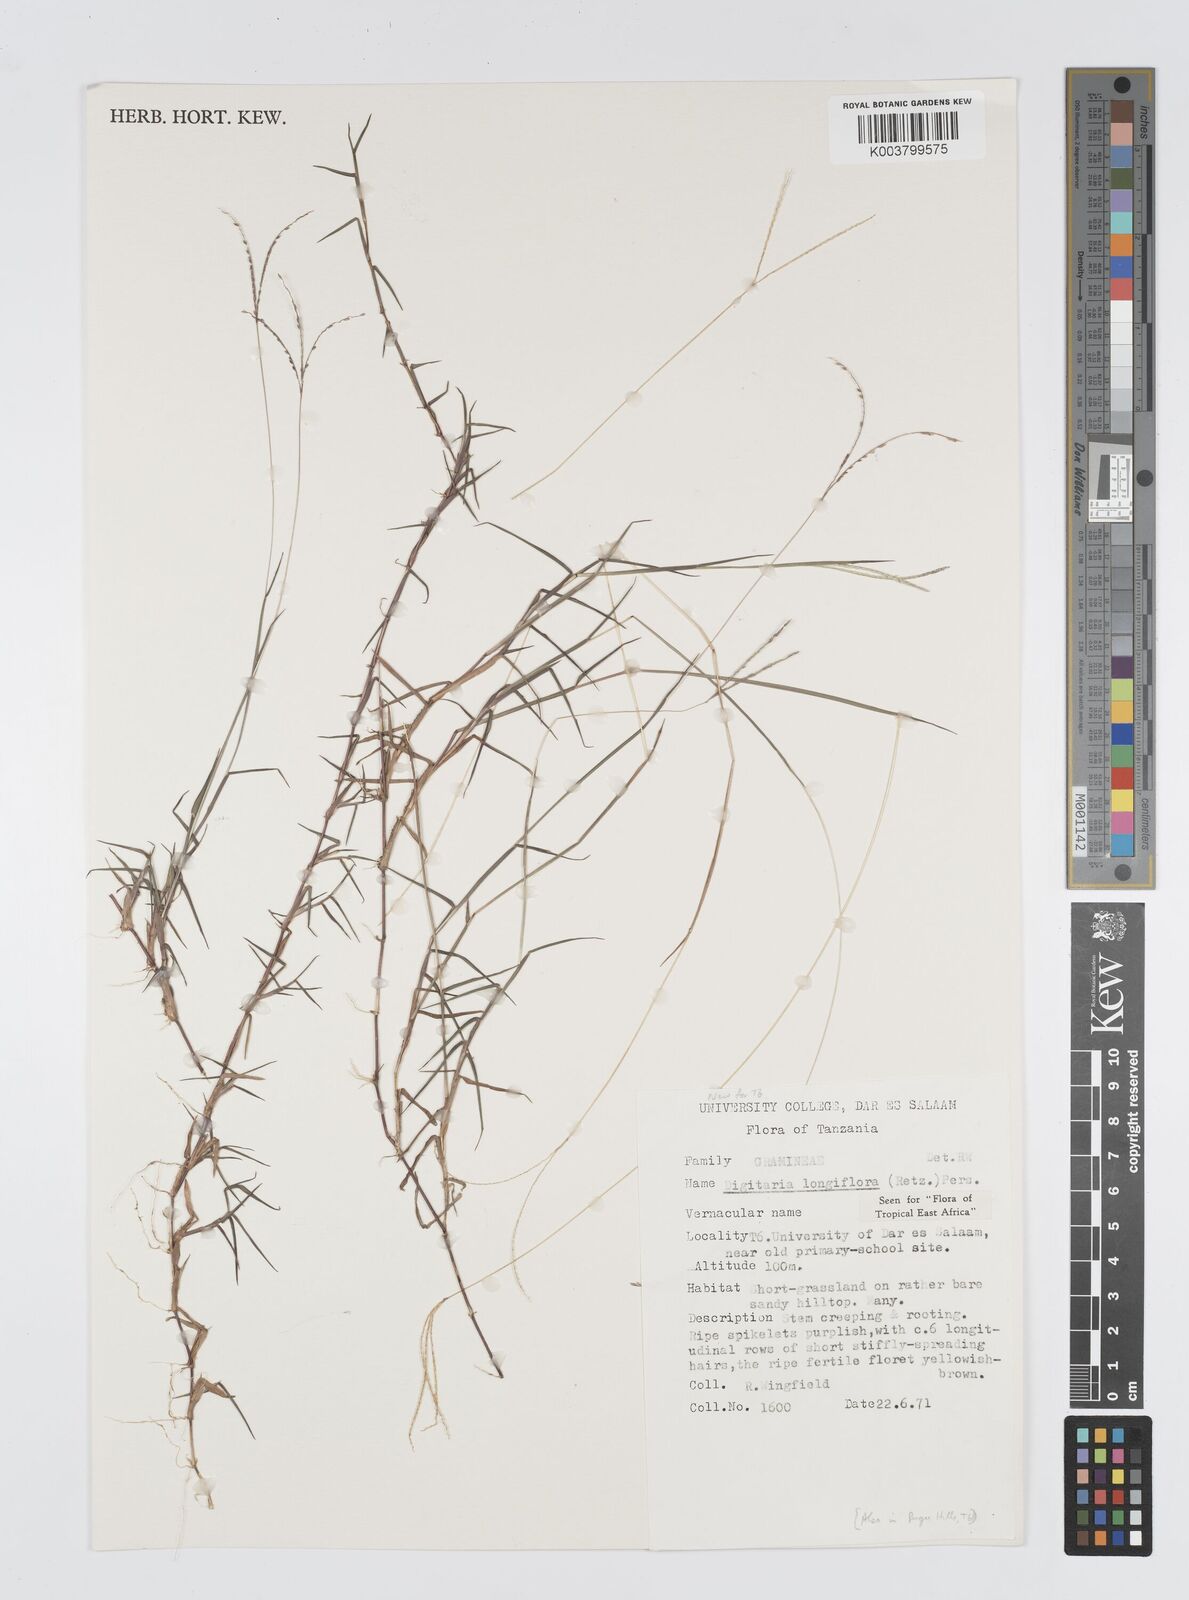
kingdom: Plantae
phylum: Tracheophyta
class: Liliopsida
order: Poales
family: Poaceae
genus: Digitaria
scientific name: Digitaria longiflora
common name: Wire crabgrass
